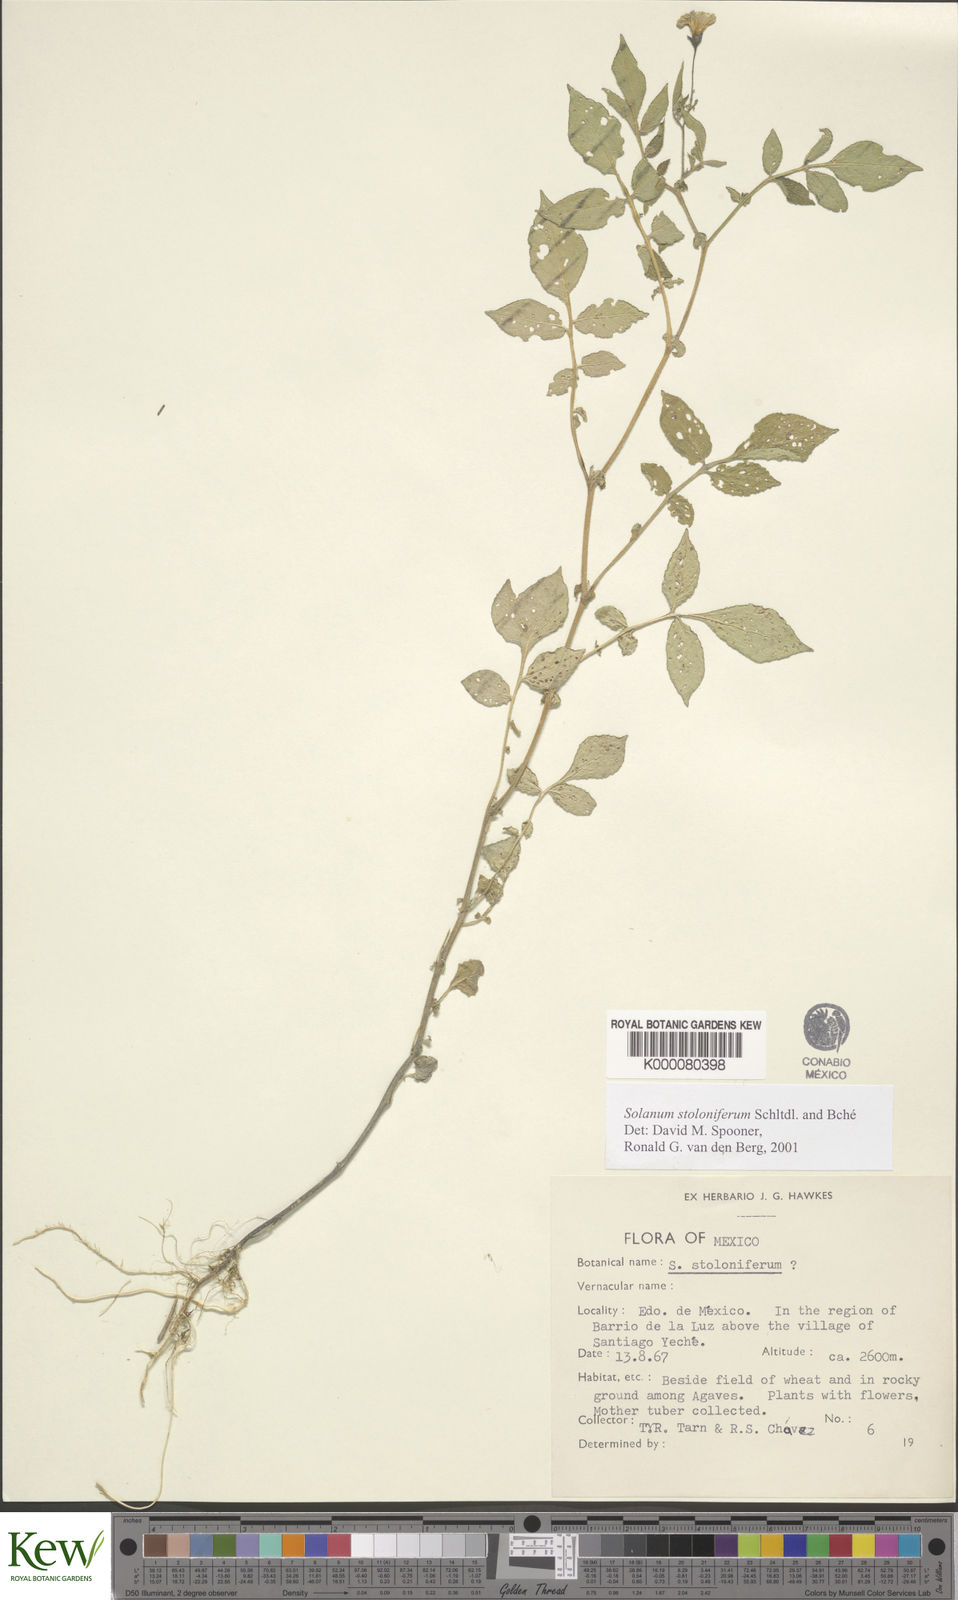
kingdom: Plantae
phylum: Tracheophyta
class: Magnoliopsida
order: Solanales
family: Solanaceae
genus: Solanum
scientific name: Solanum stoloniferum
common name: Fendler's nighshade
